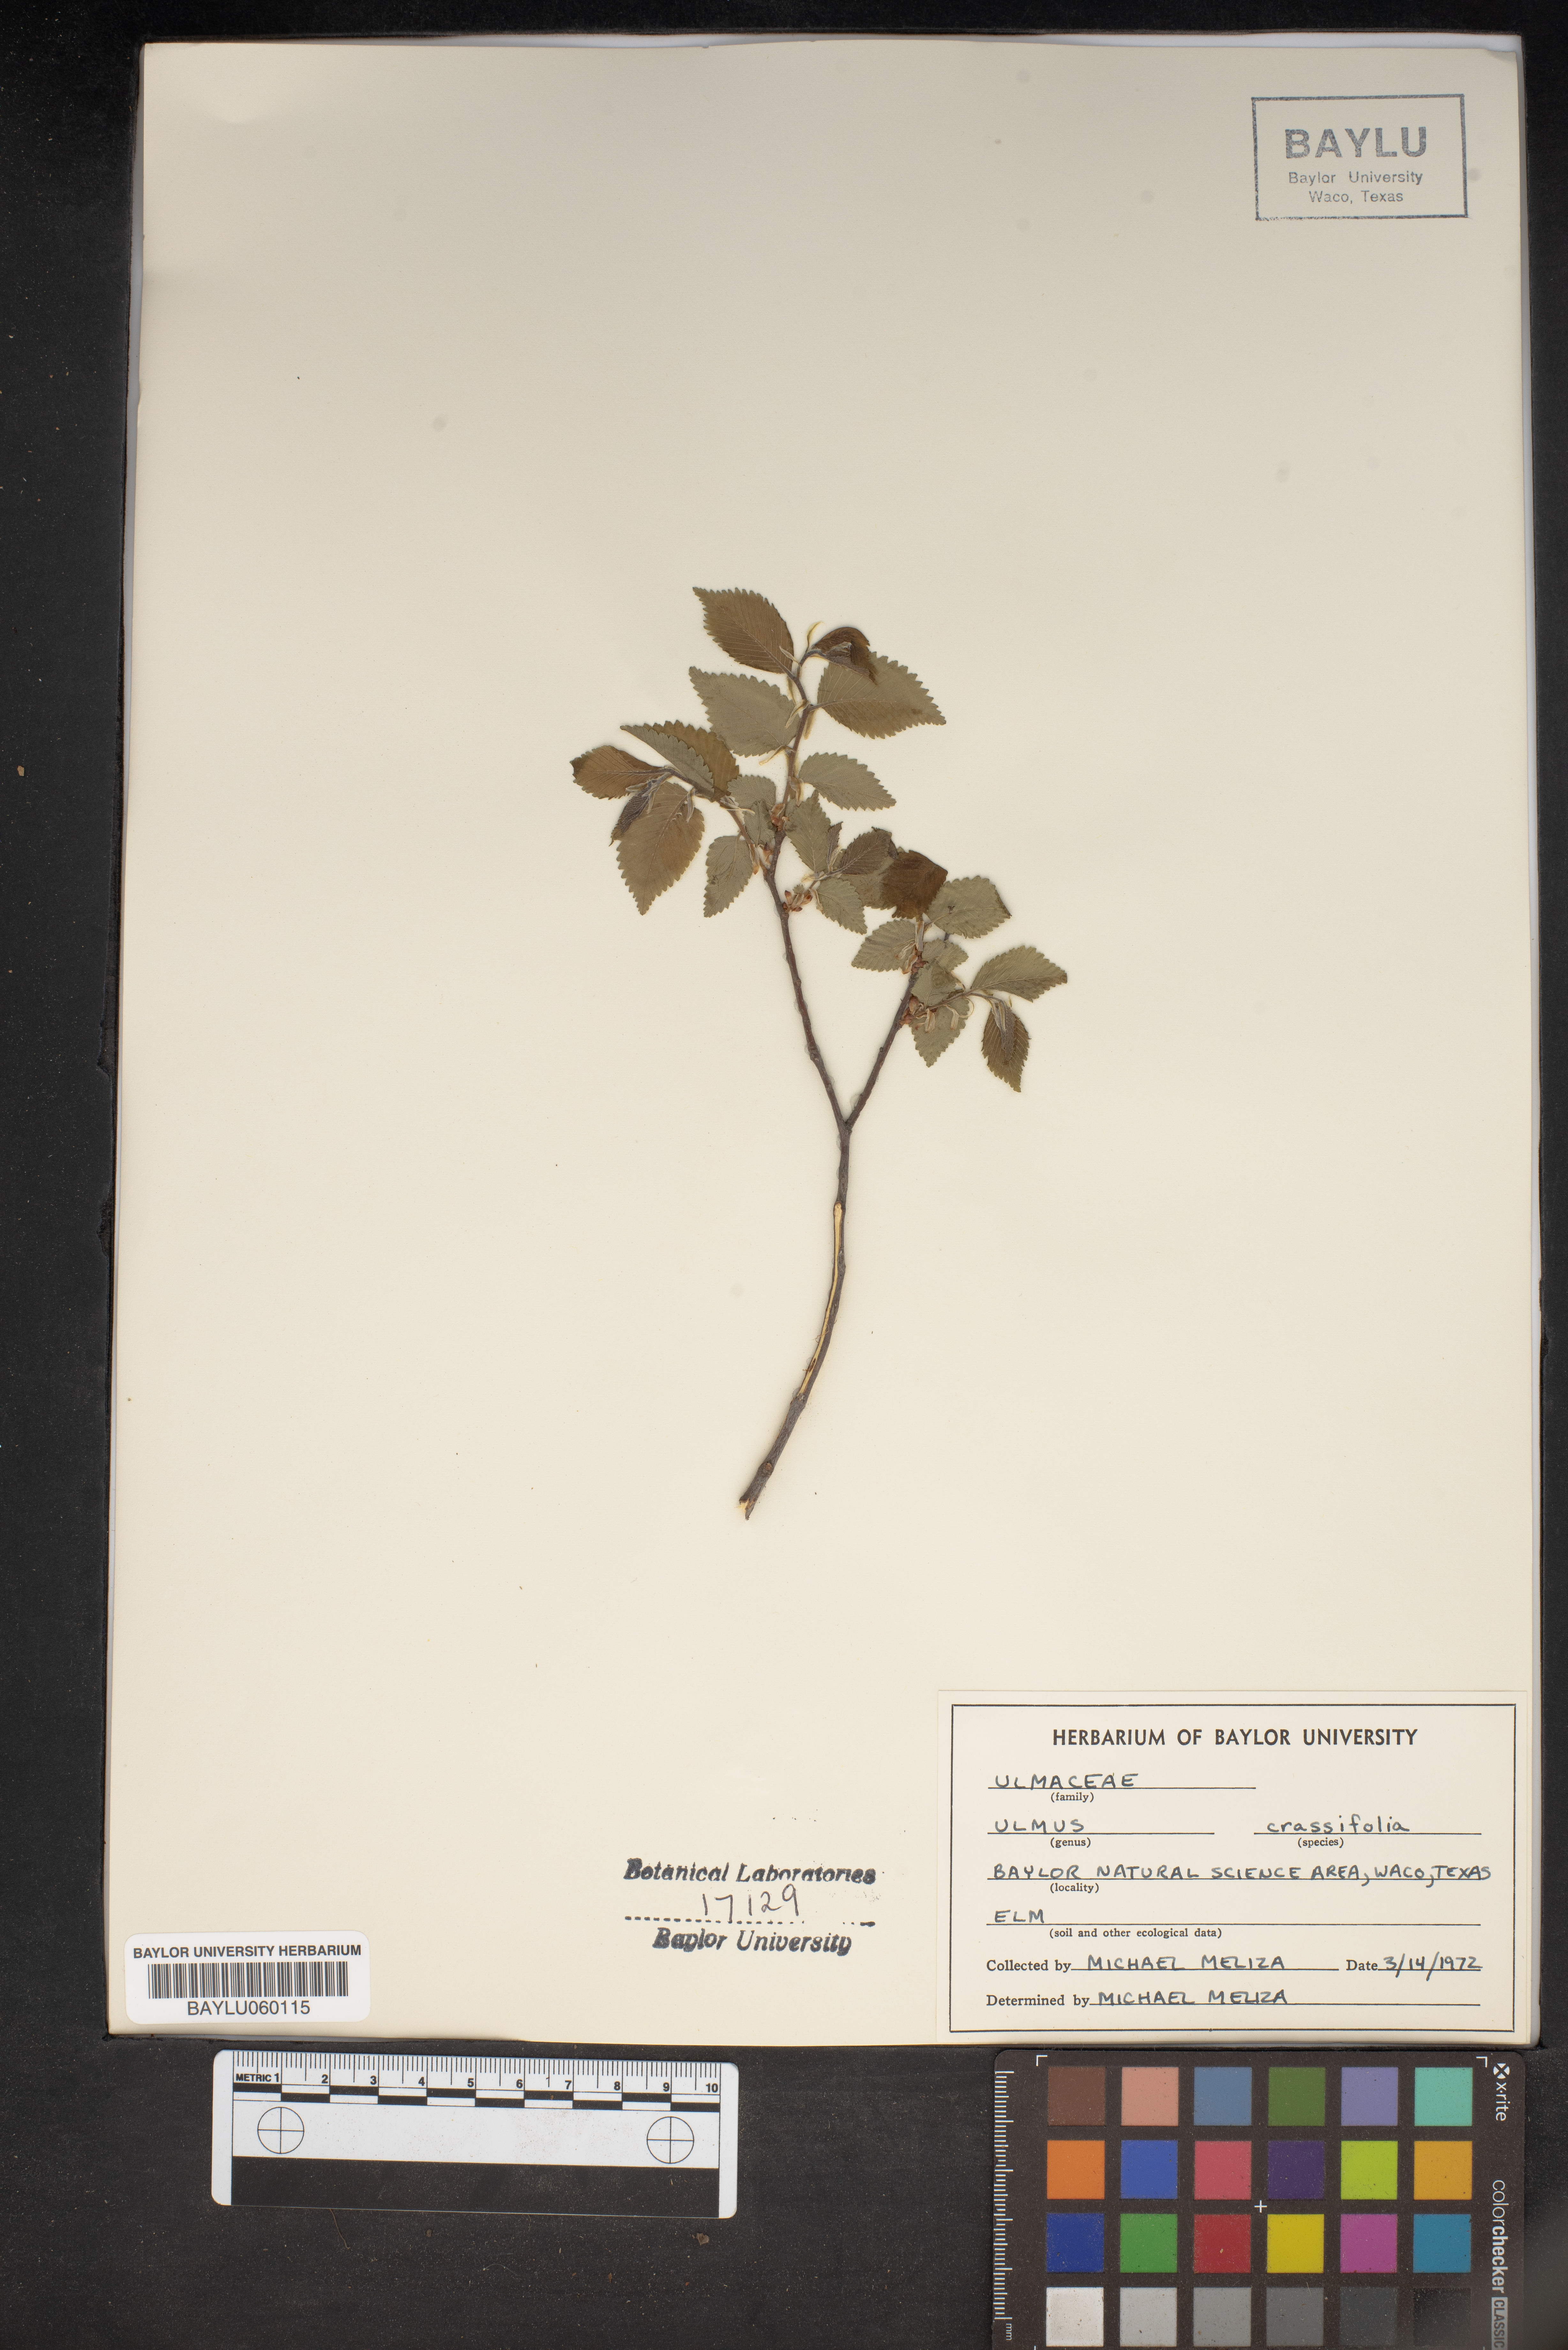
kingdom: Plantae
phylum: Tracheophyta
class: Magnoliopsida
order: Rosales
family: Ulmaceae
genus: Ulmus
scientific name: Ulmus crassifolia
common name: Basket elm
